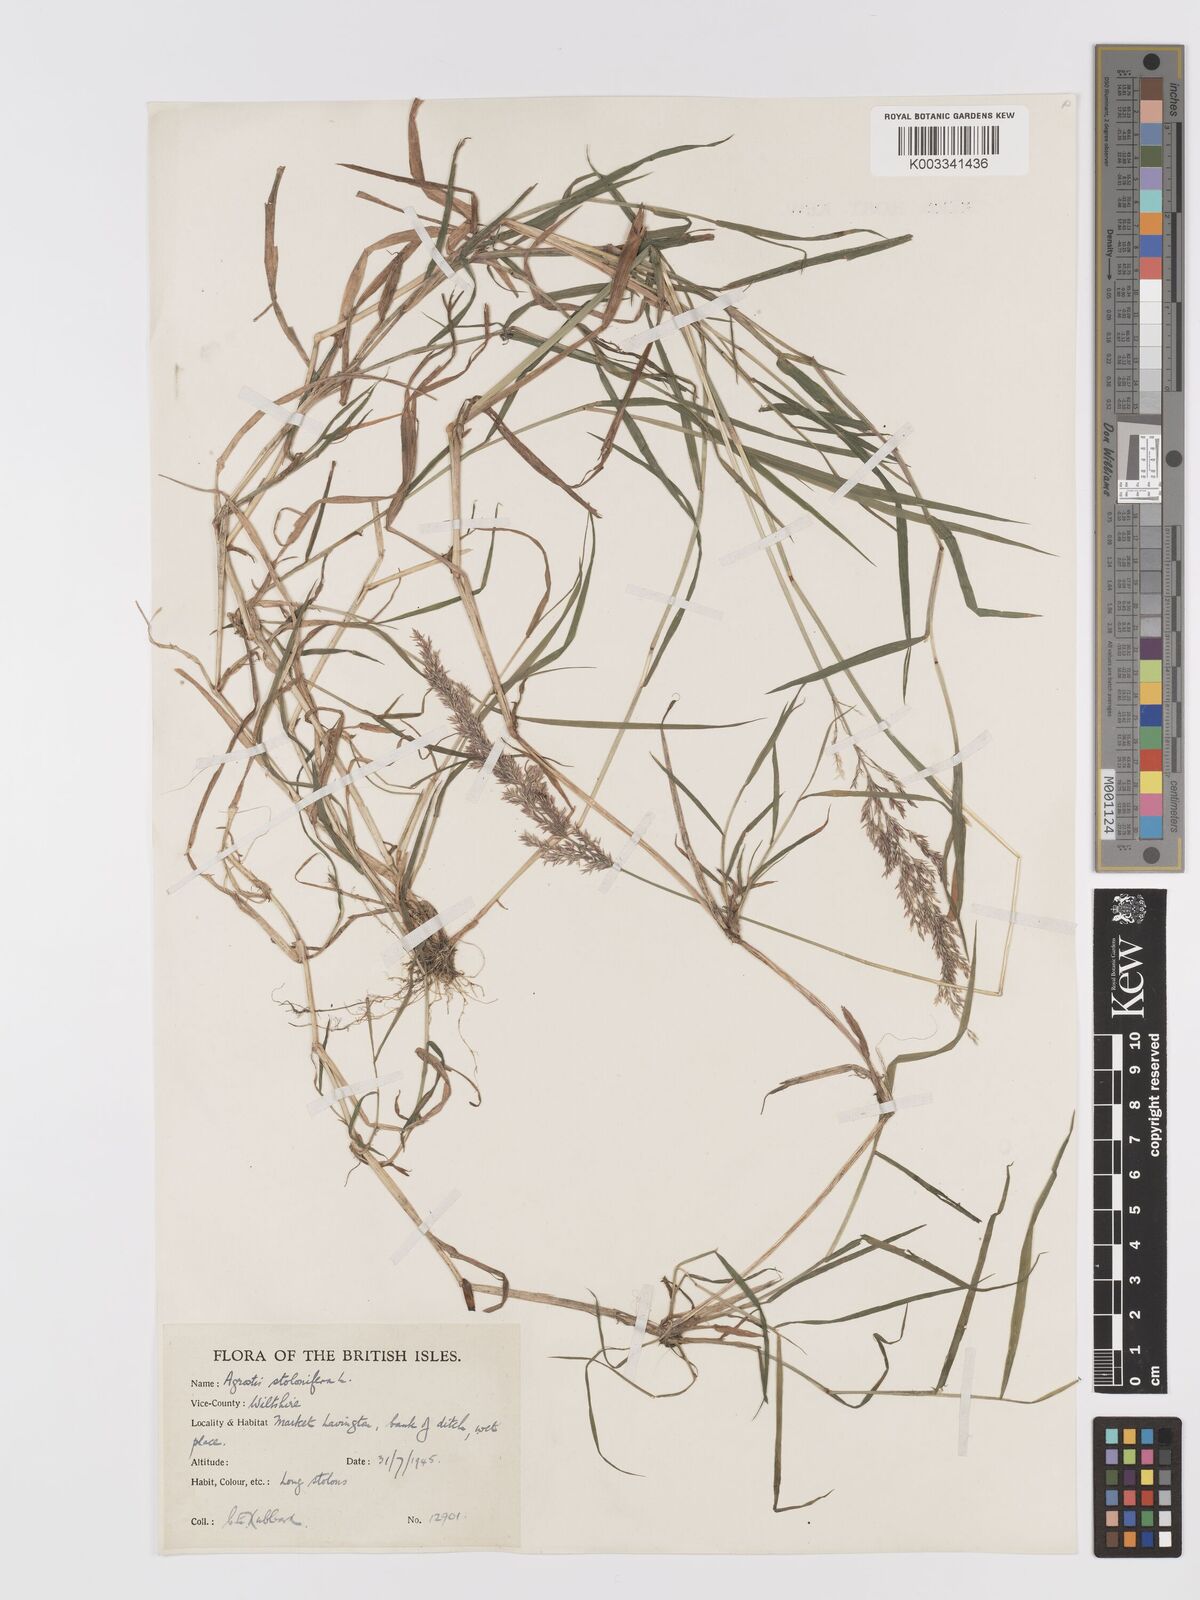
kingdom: Plantae
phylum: Tracheophyta
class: Liliopsida
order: Poales
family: Poaceae
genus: Agrostis
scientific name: Agrostis stolonifera
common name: Creeping bentgrass
